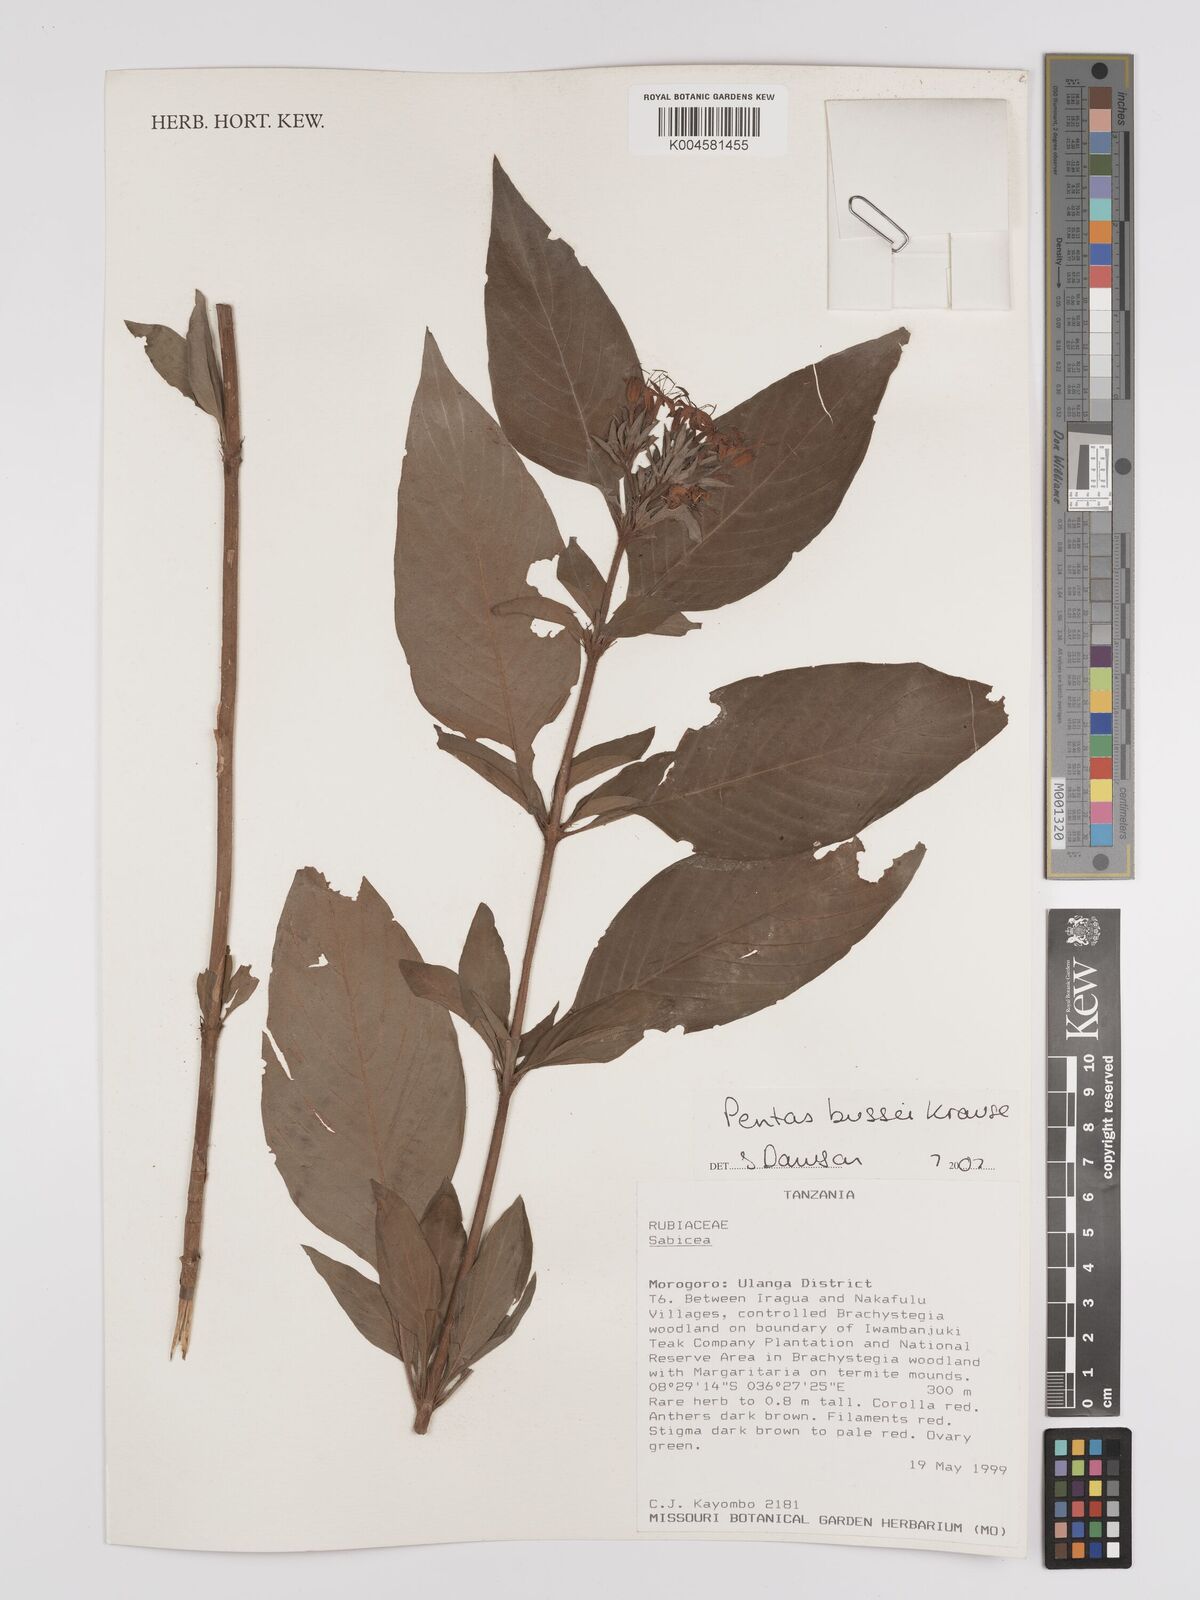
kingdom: Plantae
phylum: Tracheophyta
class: Magnoliopsida
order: Gentianales
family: Rubiaceae
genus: Rhodopentas
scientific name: Rhodopentas bussei
